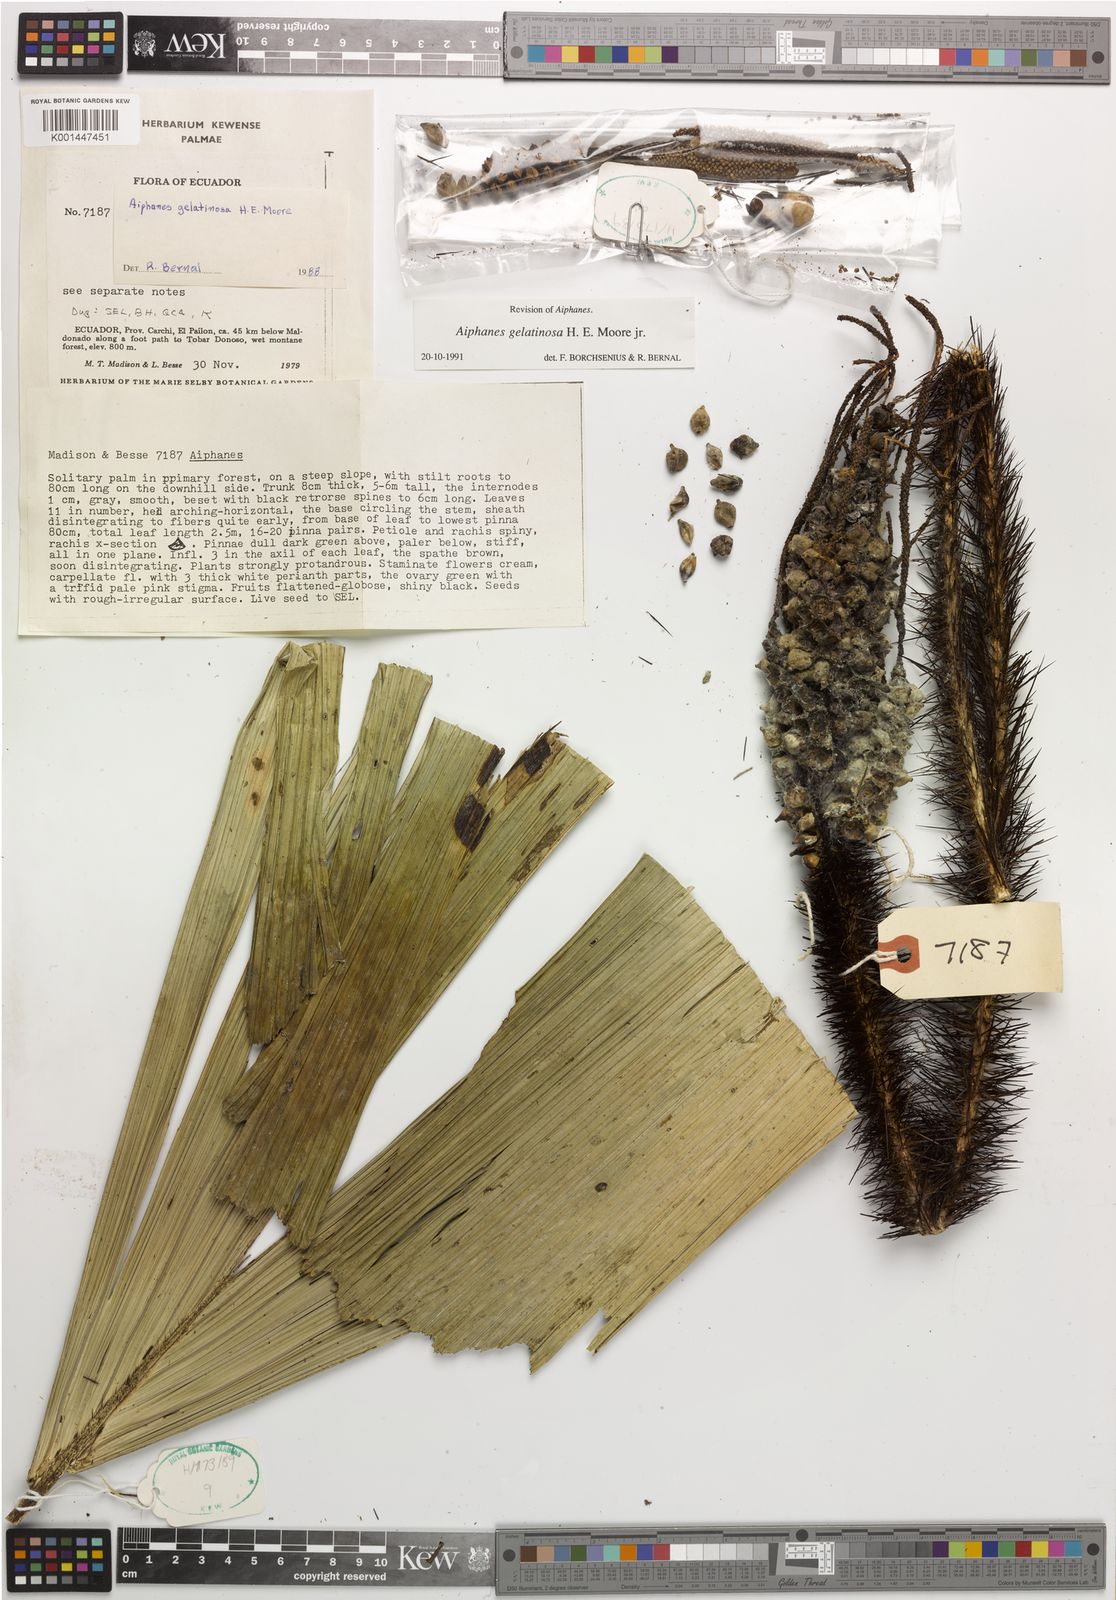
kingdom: Plantae
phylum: Tracheophyta
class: Liliopsida
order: Arecales
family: Arecaceae
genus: Aiphanes
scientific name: Aiphanes gelatinosa
